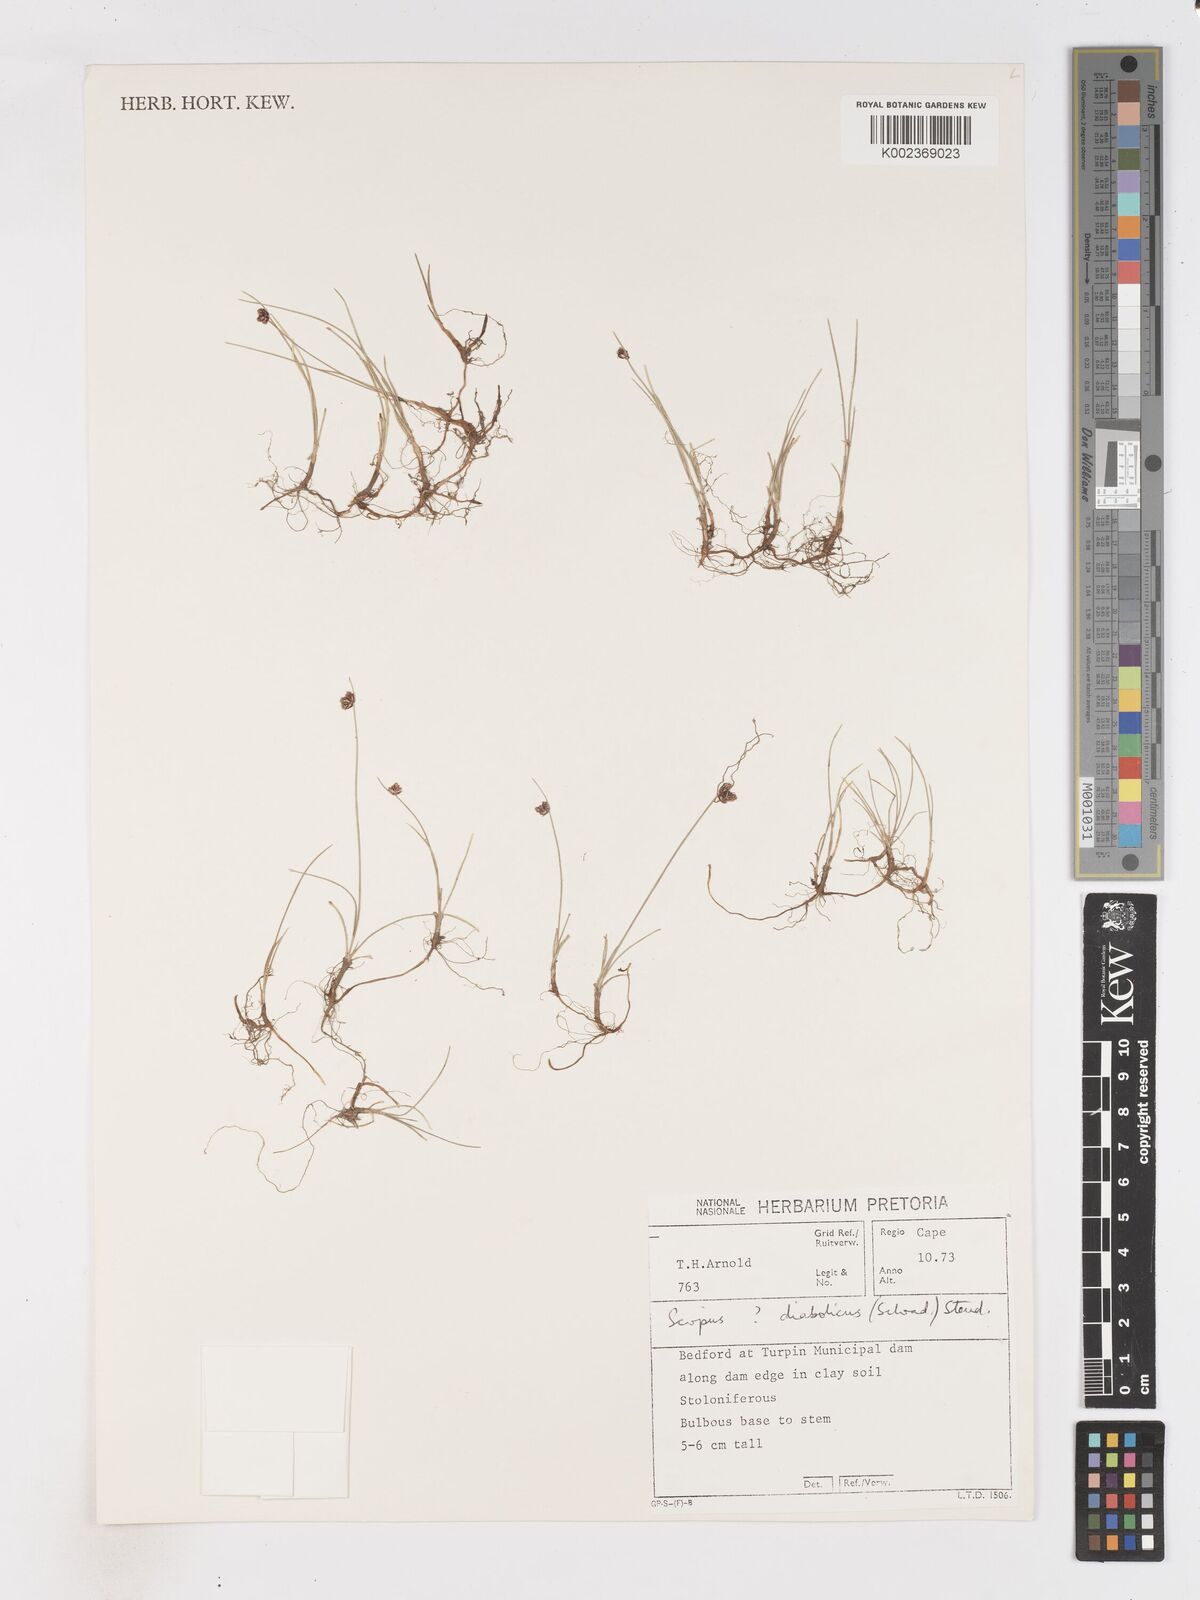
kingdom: Plantae
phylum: Tracheophyta
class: Liliopsida
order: Poales
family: Cyperaceae
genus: Isolepis
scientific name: Isolepis diabolica
